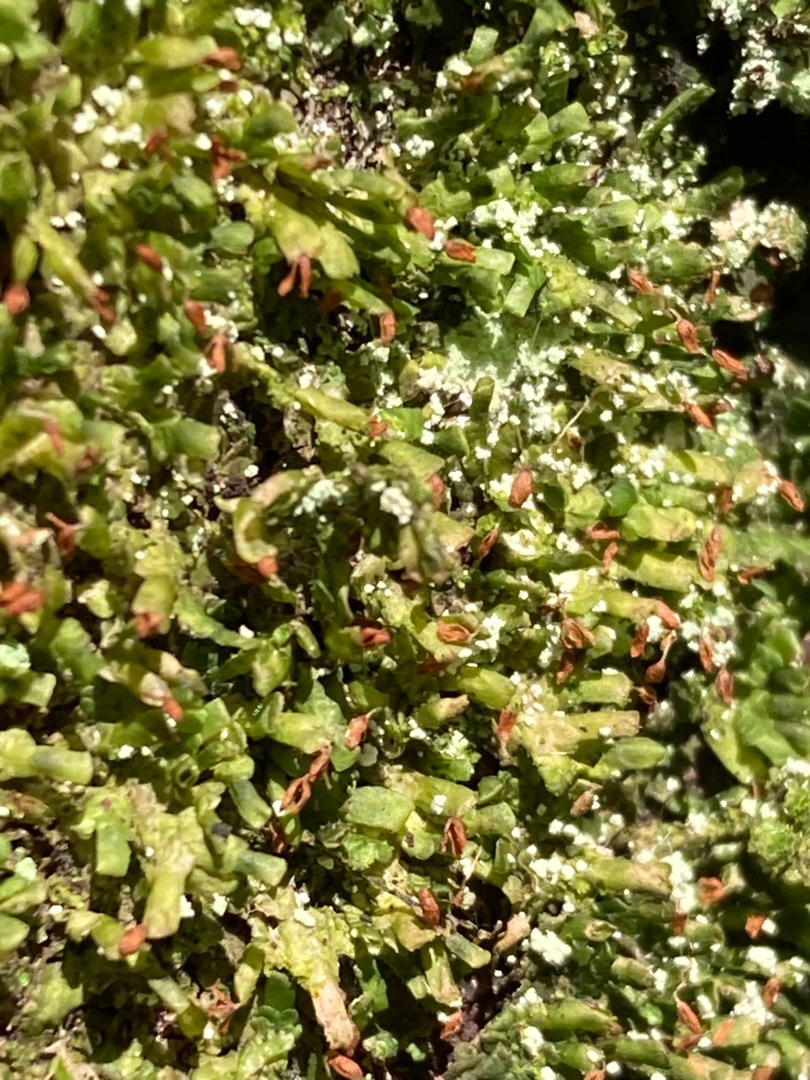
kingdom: Plantae
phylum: Marchantiophyta
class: Jungermanniopsida
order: Porellales
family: Radulaceae
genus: Radula
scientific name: Radula complanata
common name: Almindelig spartelmos
